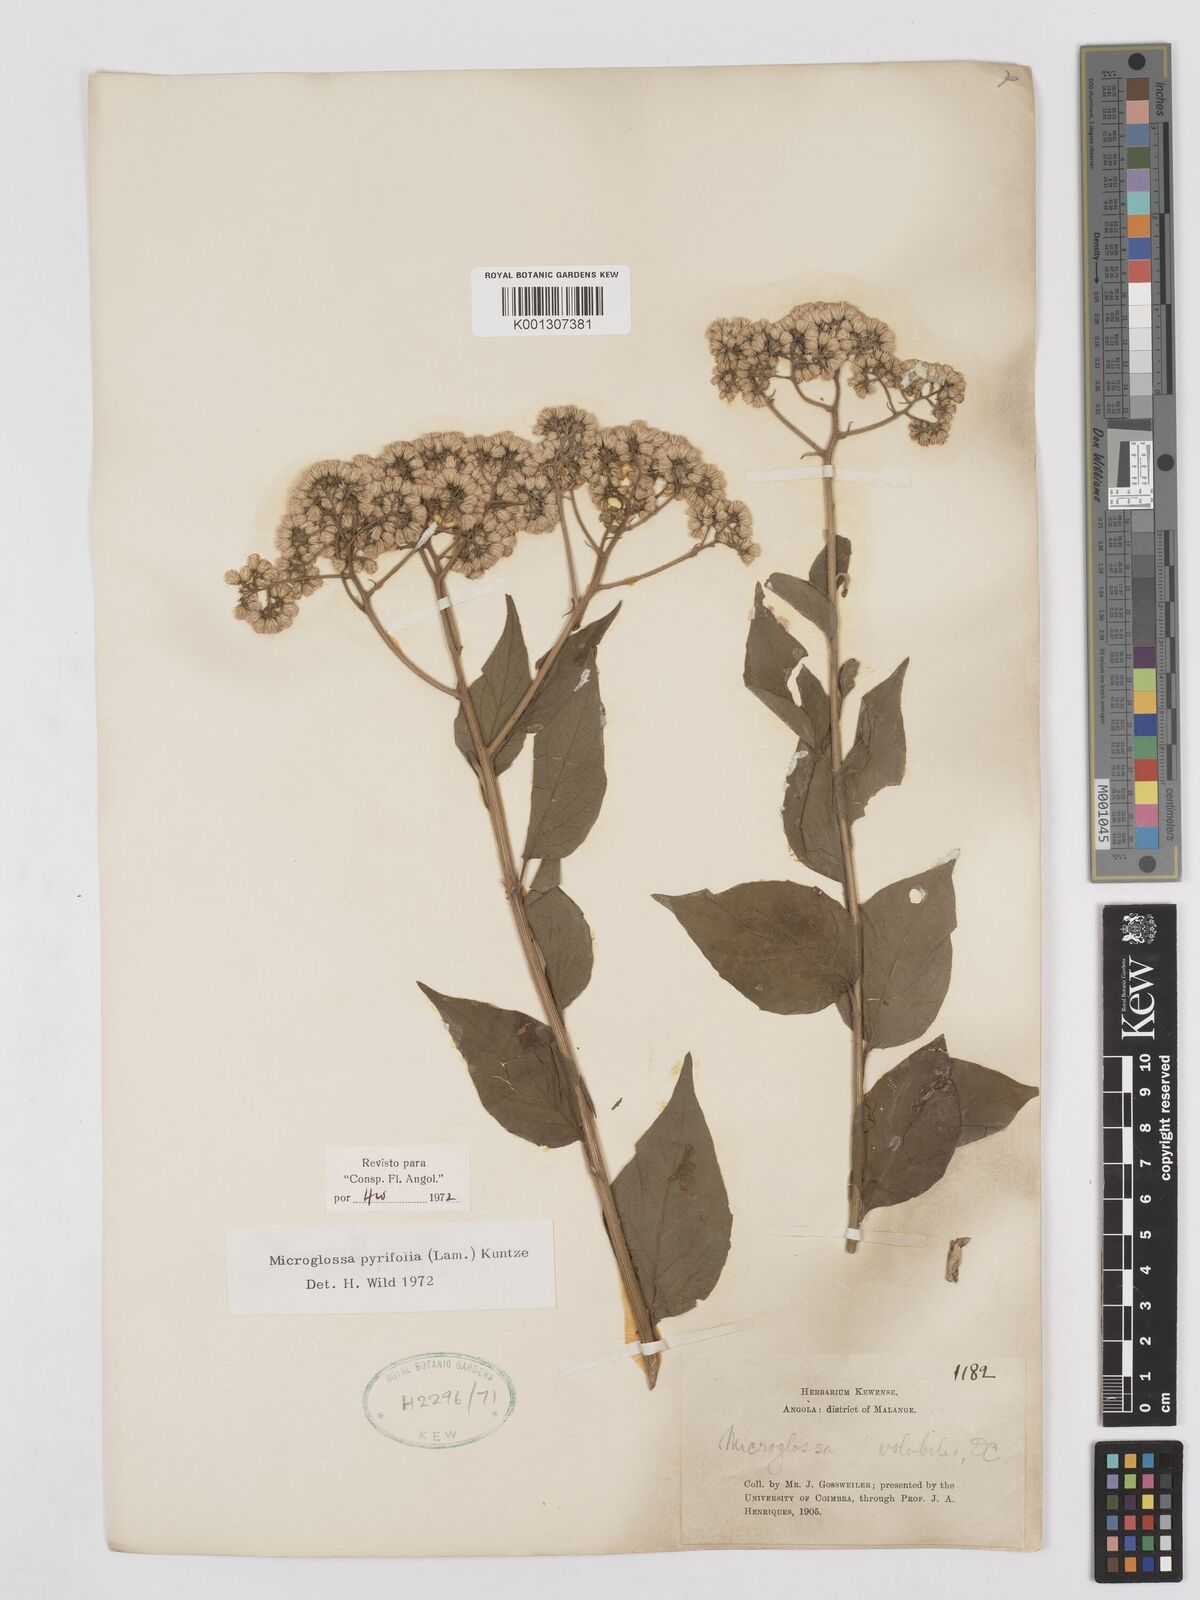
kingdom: Plantae
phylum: Tracheophyta
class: Magnoliopsida
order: Asterales
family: Asteraceae
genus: Microglossa
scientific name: Microglossa pyrifolia
